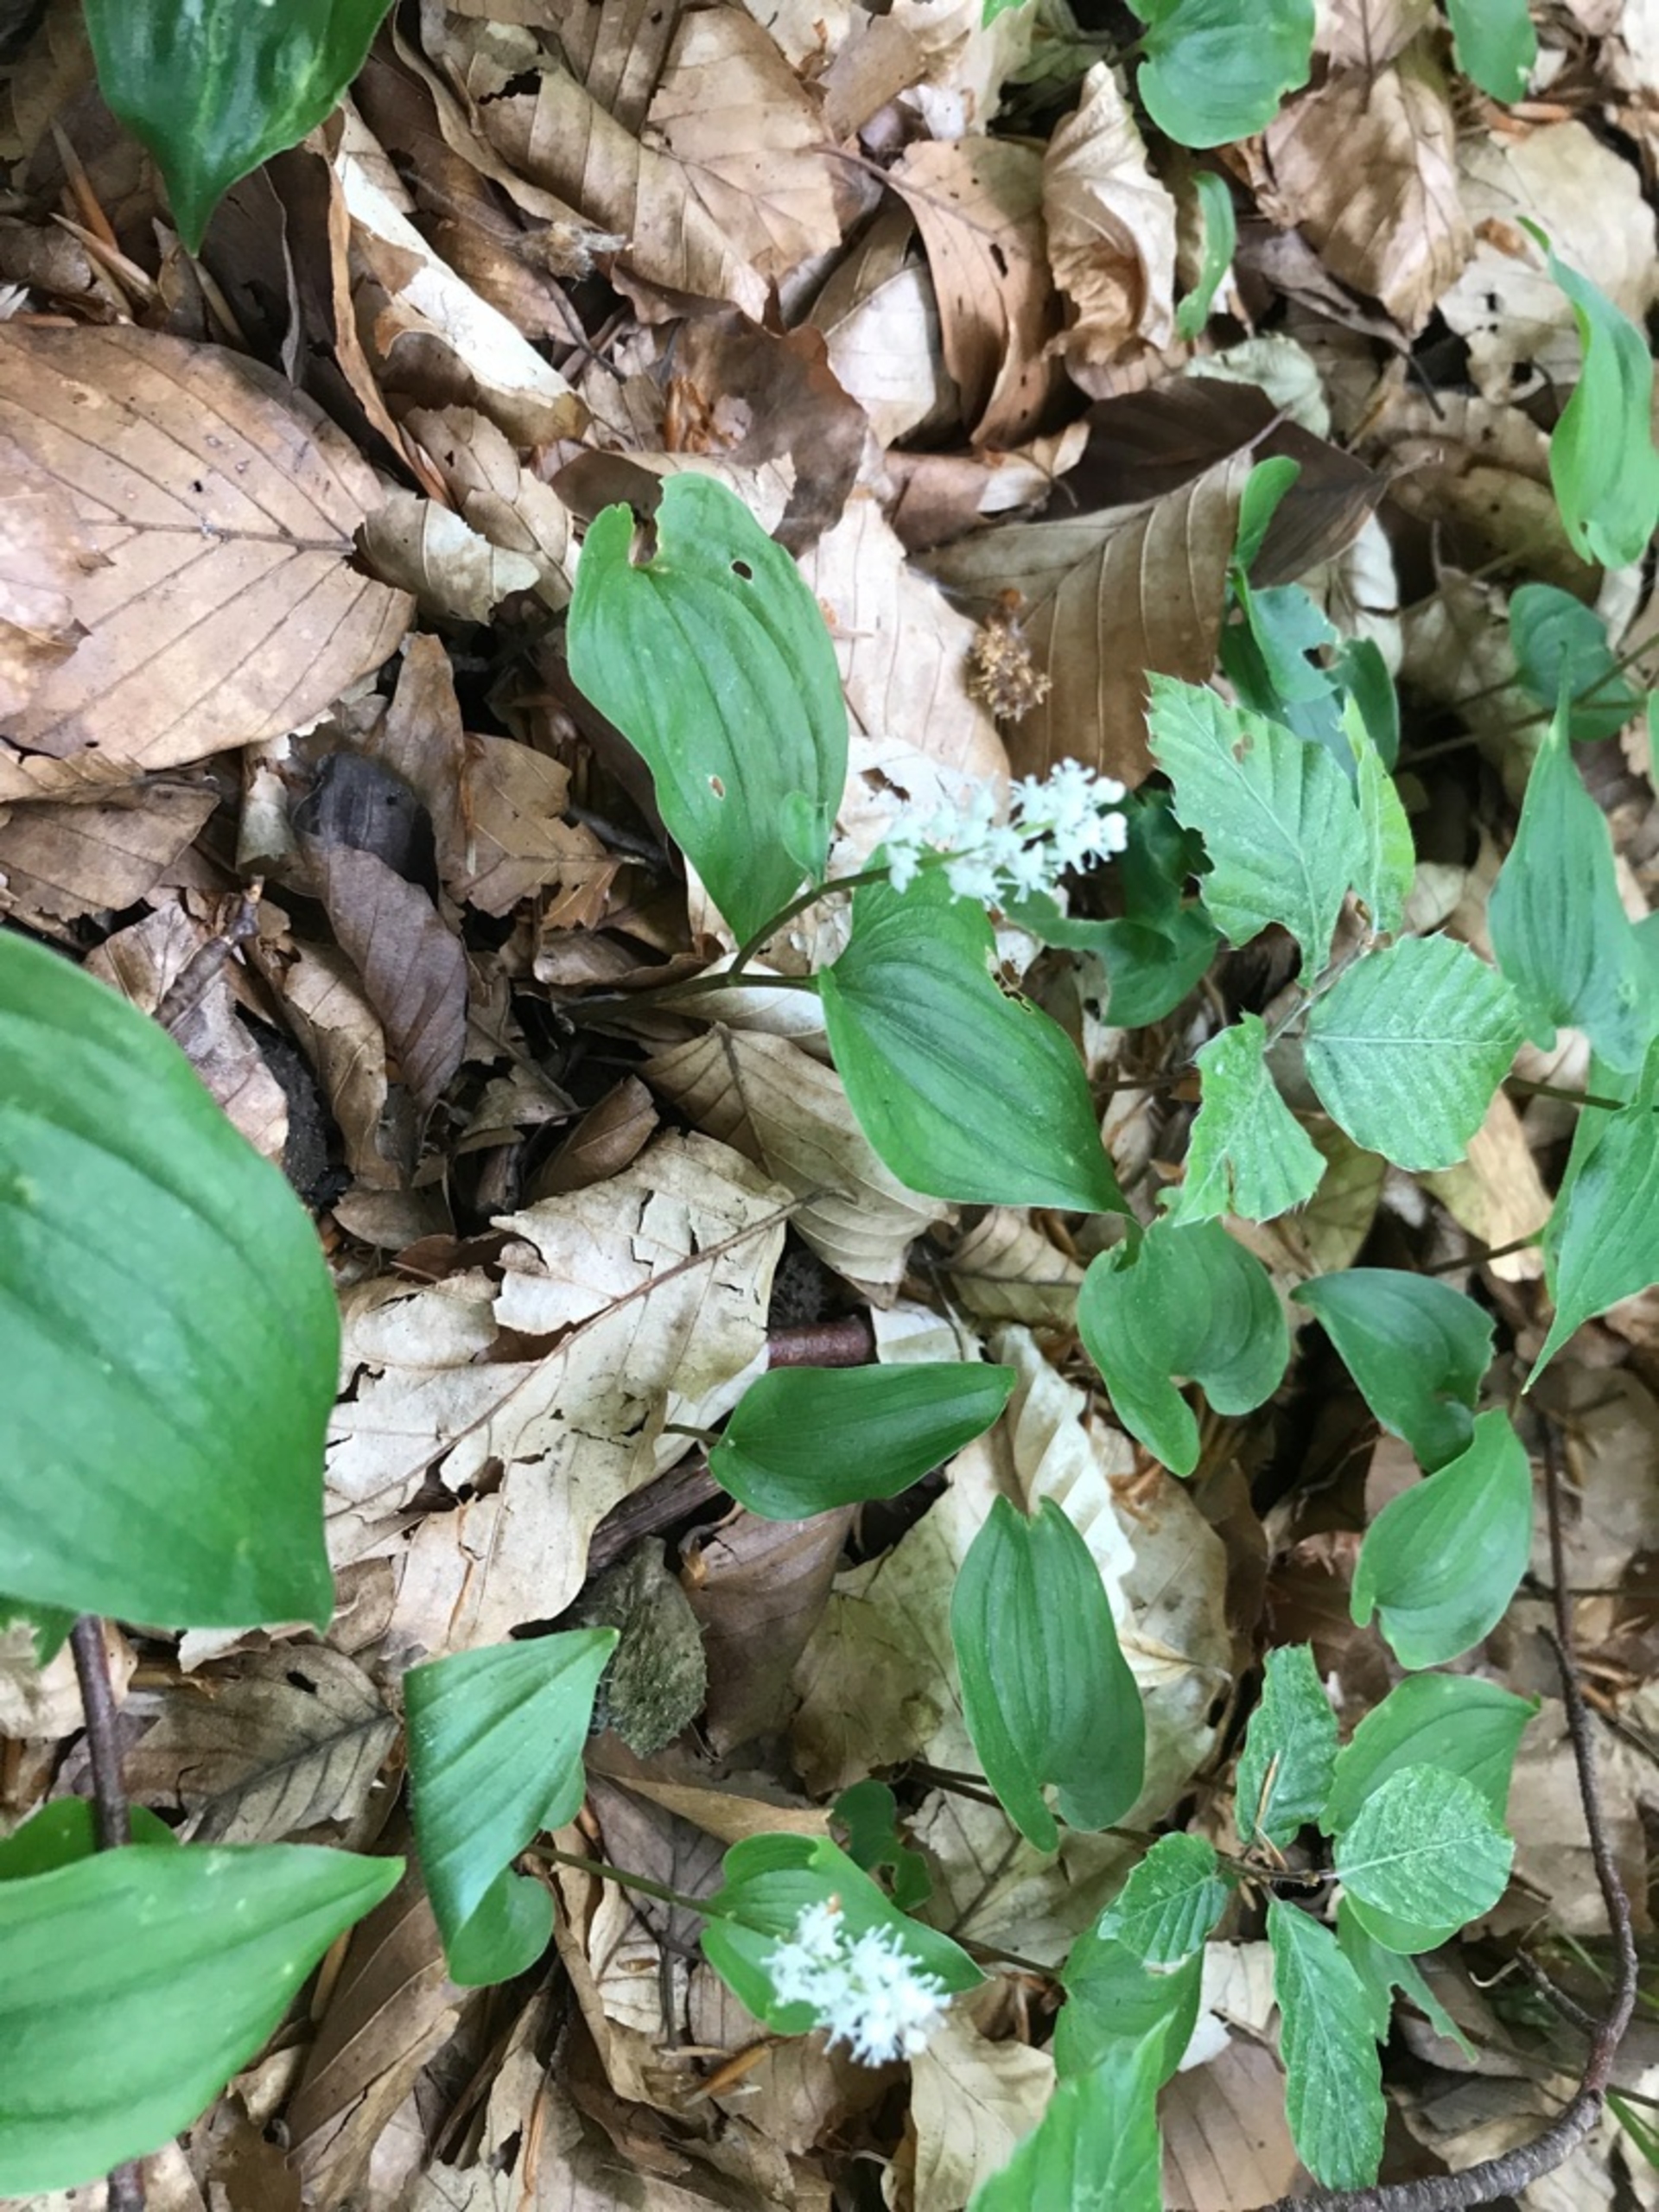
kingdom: Plantae
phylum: Tracheophyta
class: Liliopsida
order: Asparagales
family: Asparagaceae
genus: Maianthemum
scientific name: Maianthemum bifolium
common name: Majblomst
